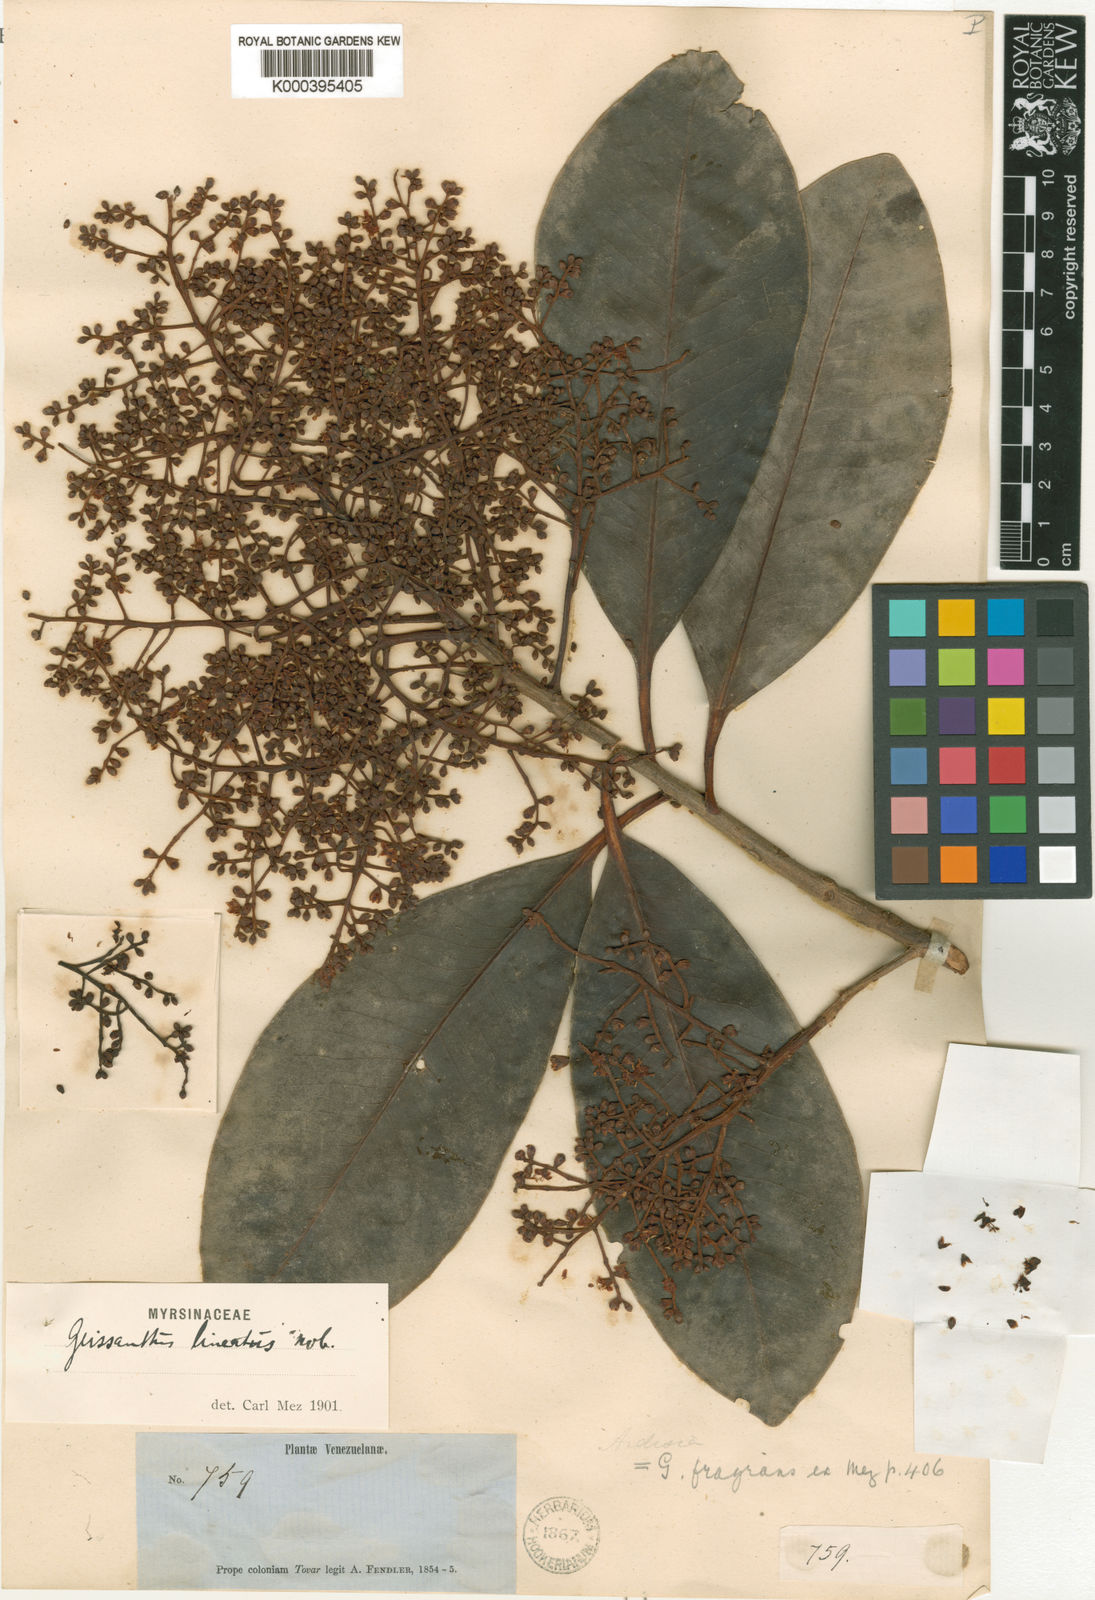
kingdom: Plantae
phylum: Tracheophyta
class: Magnoliopsida
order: Ericales
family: Primulaceae
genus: Geissanthus
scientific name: Geissanthus
